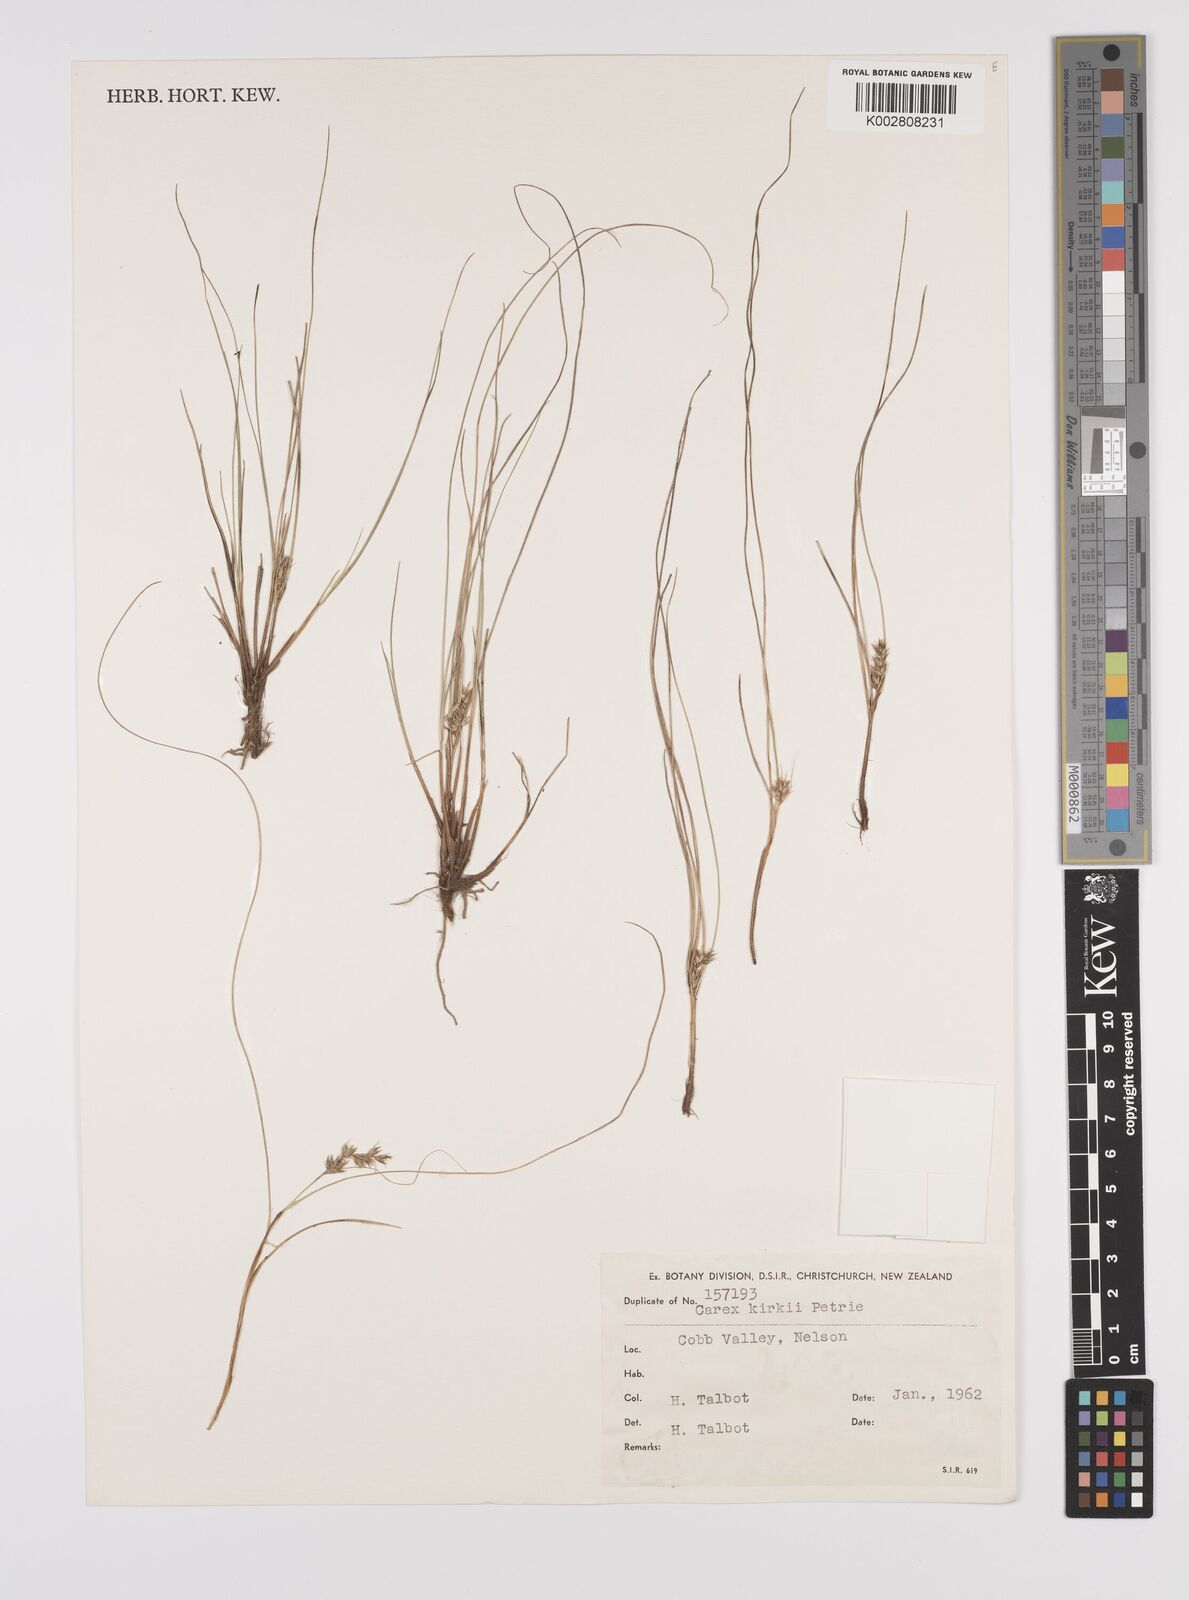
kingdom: Plantae
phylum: Tracheophyta
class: Liliopsida
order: Poales
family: Cyperaceae
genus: Carex
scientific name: Carex kirkii
